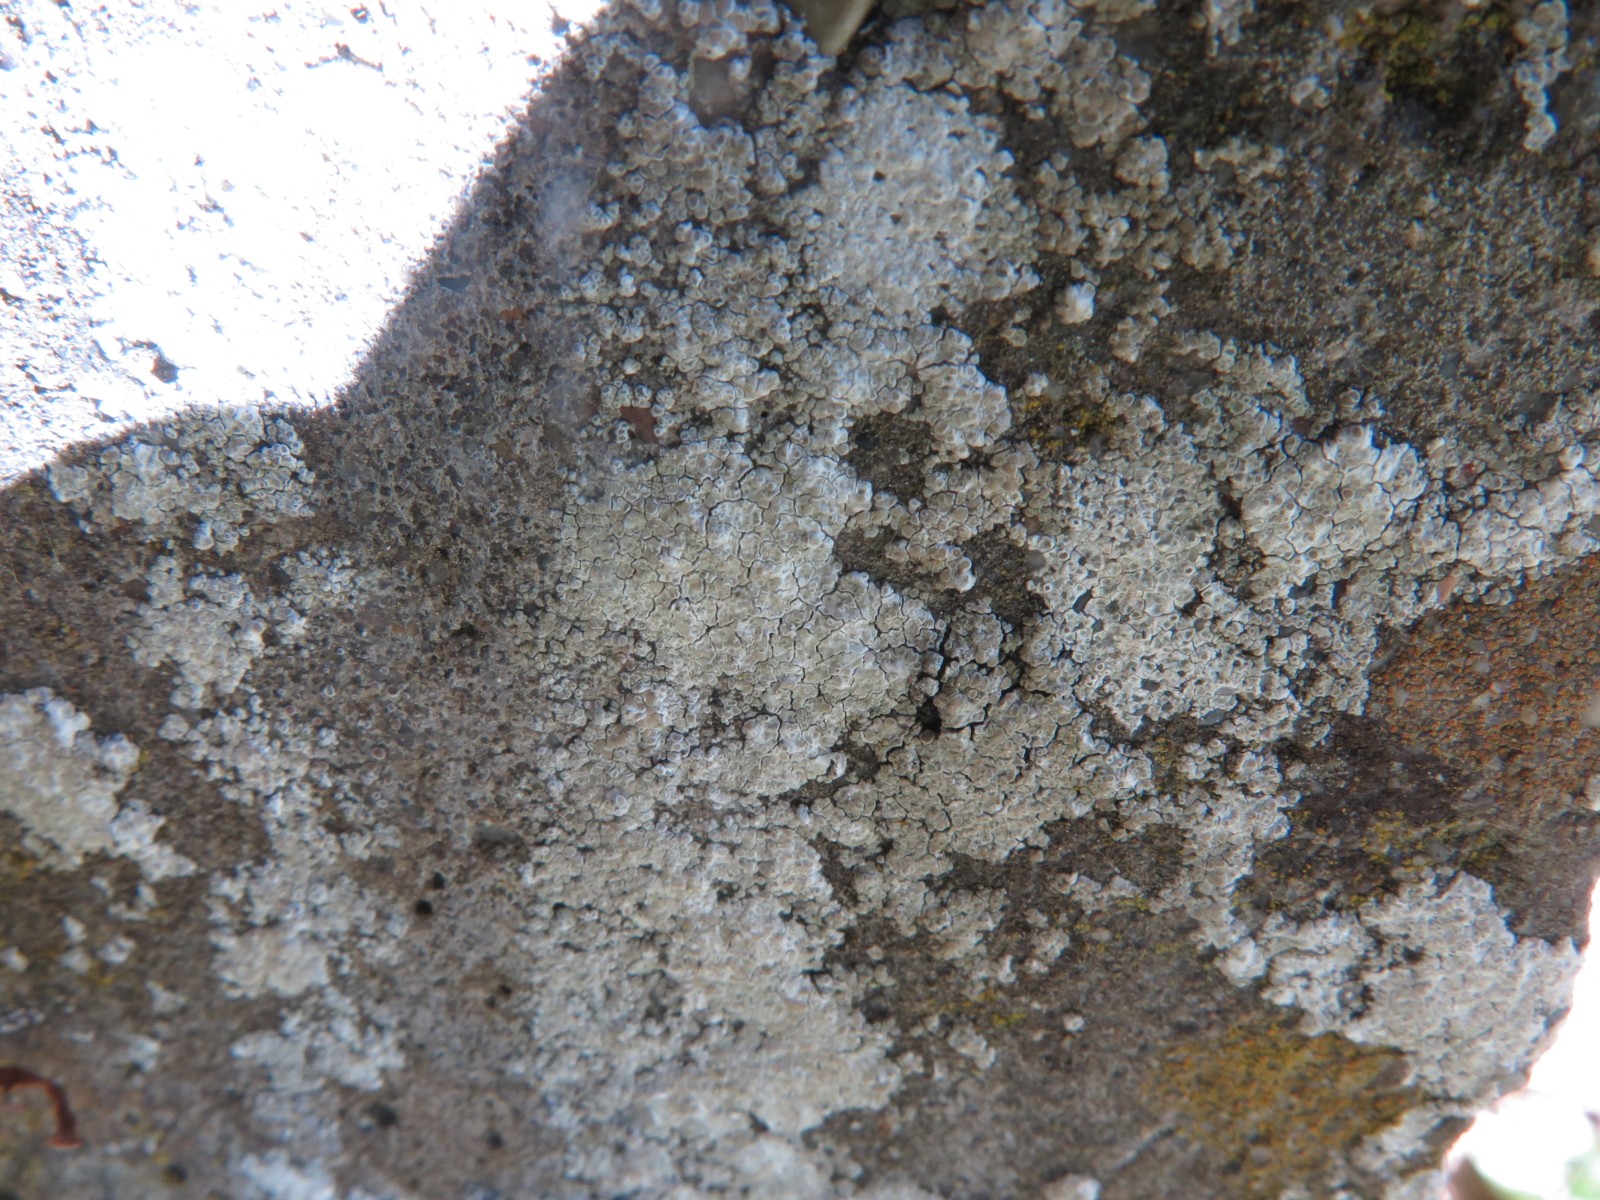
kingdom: Fungi
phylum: Ascomycota
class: Lecanoromycetes
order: Lecanorales
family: Lecanoraceae
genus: Polyozosia
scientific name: Polyozosia albescens
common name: cement-kantskivelav
